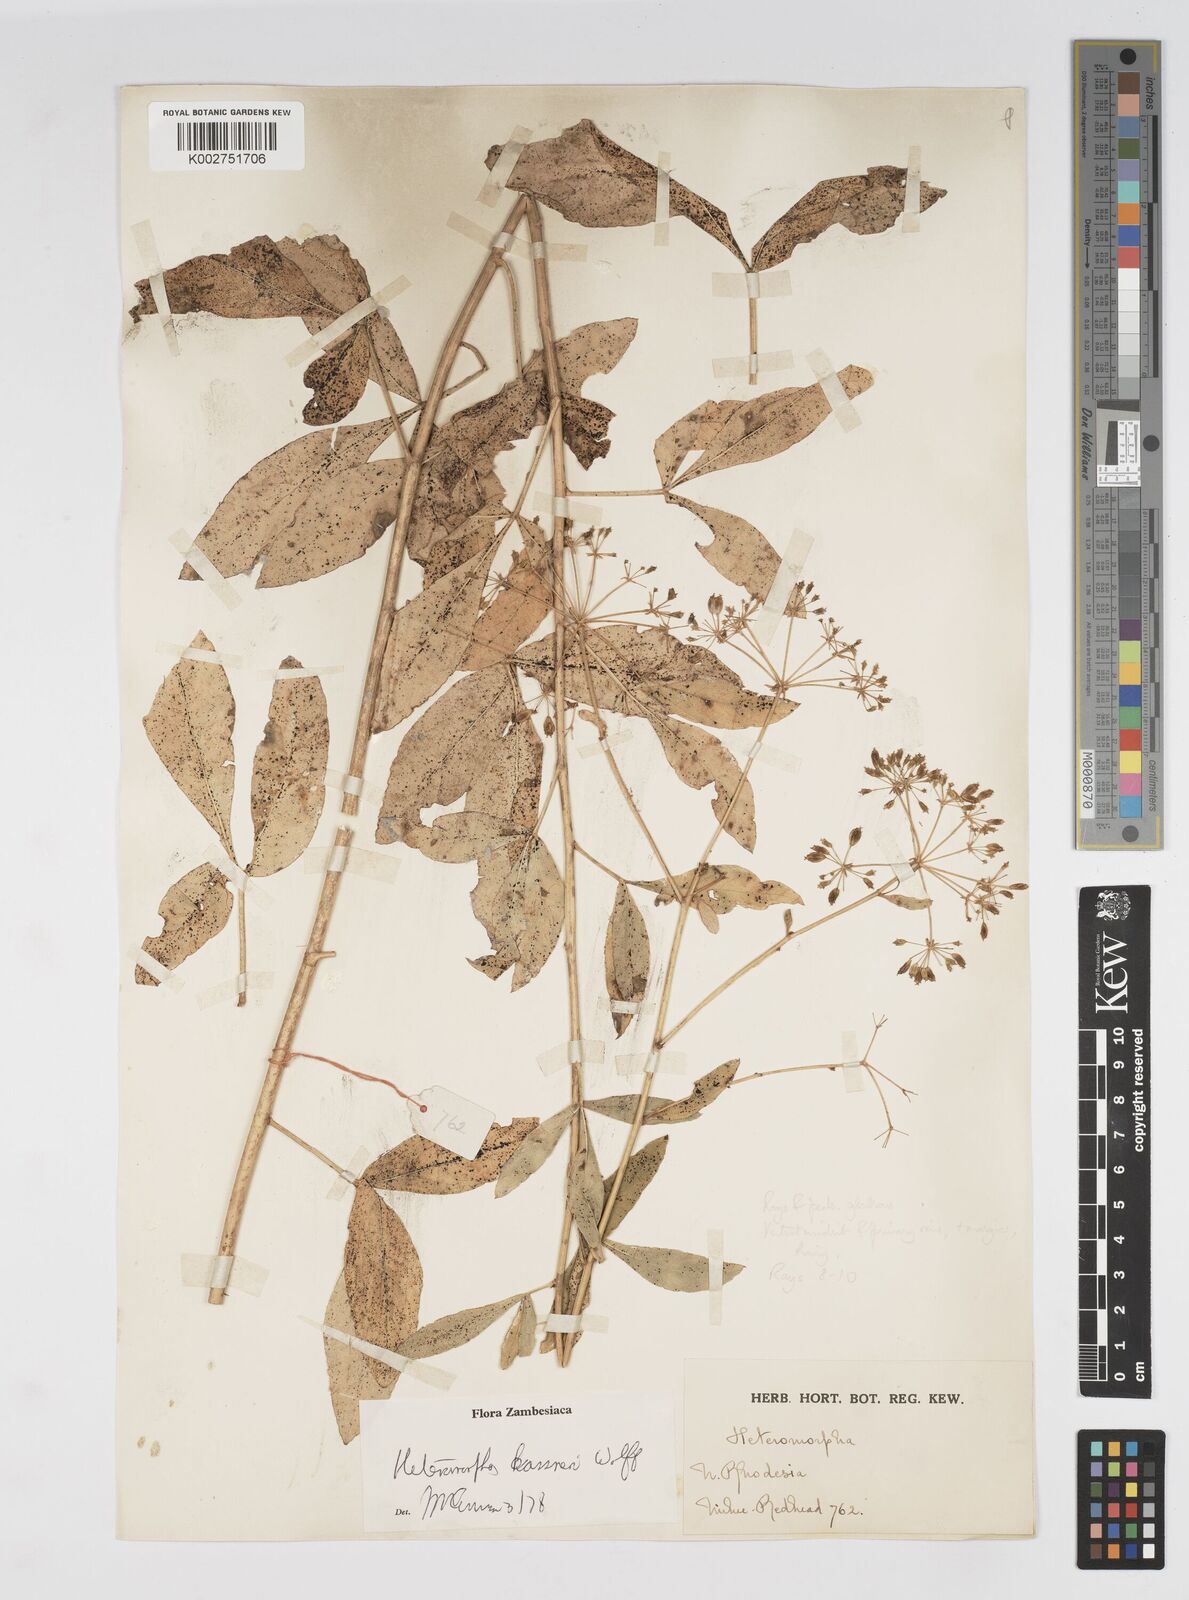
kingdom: Plantae
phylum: Tracheophyta
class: Magnoliopsida
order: Apiales
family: Apiaceae
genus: Heteromorpha
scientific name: Heteromorpha occidentalis
